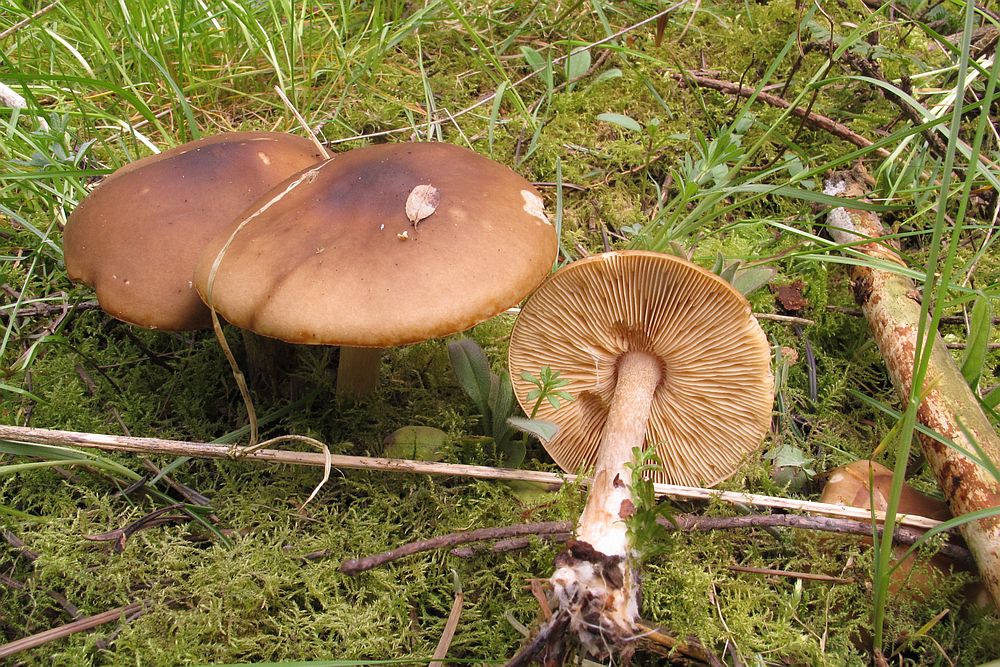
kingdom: Fungi
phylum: Basidiomycota
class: Agaricomycetes
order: Agaricales
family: Tricholomataceae
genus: Melanoleuca
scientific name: Melanoleuca cognata
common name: gyldengrå munkehat
